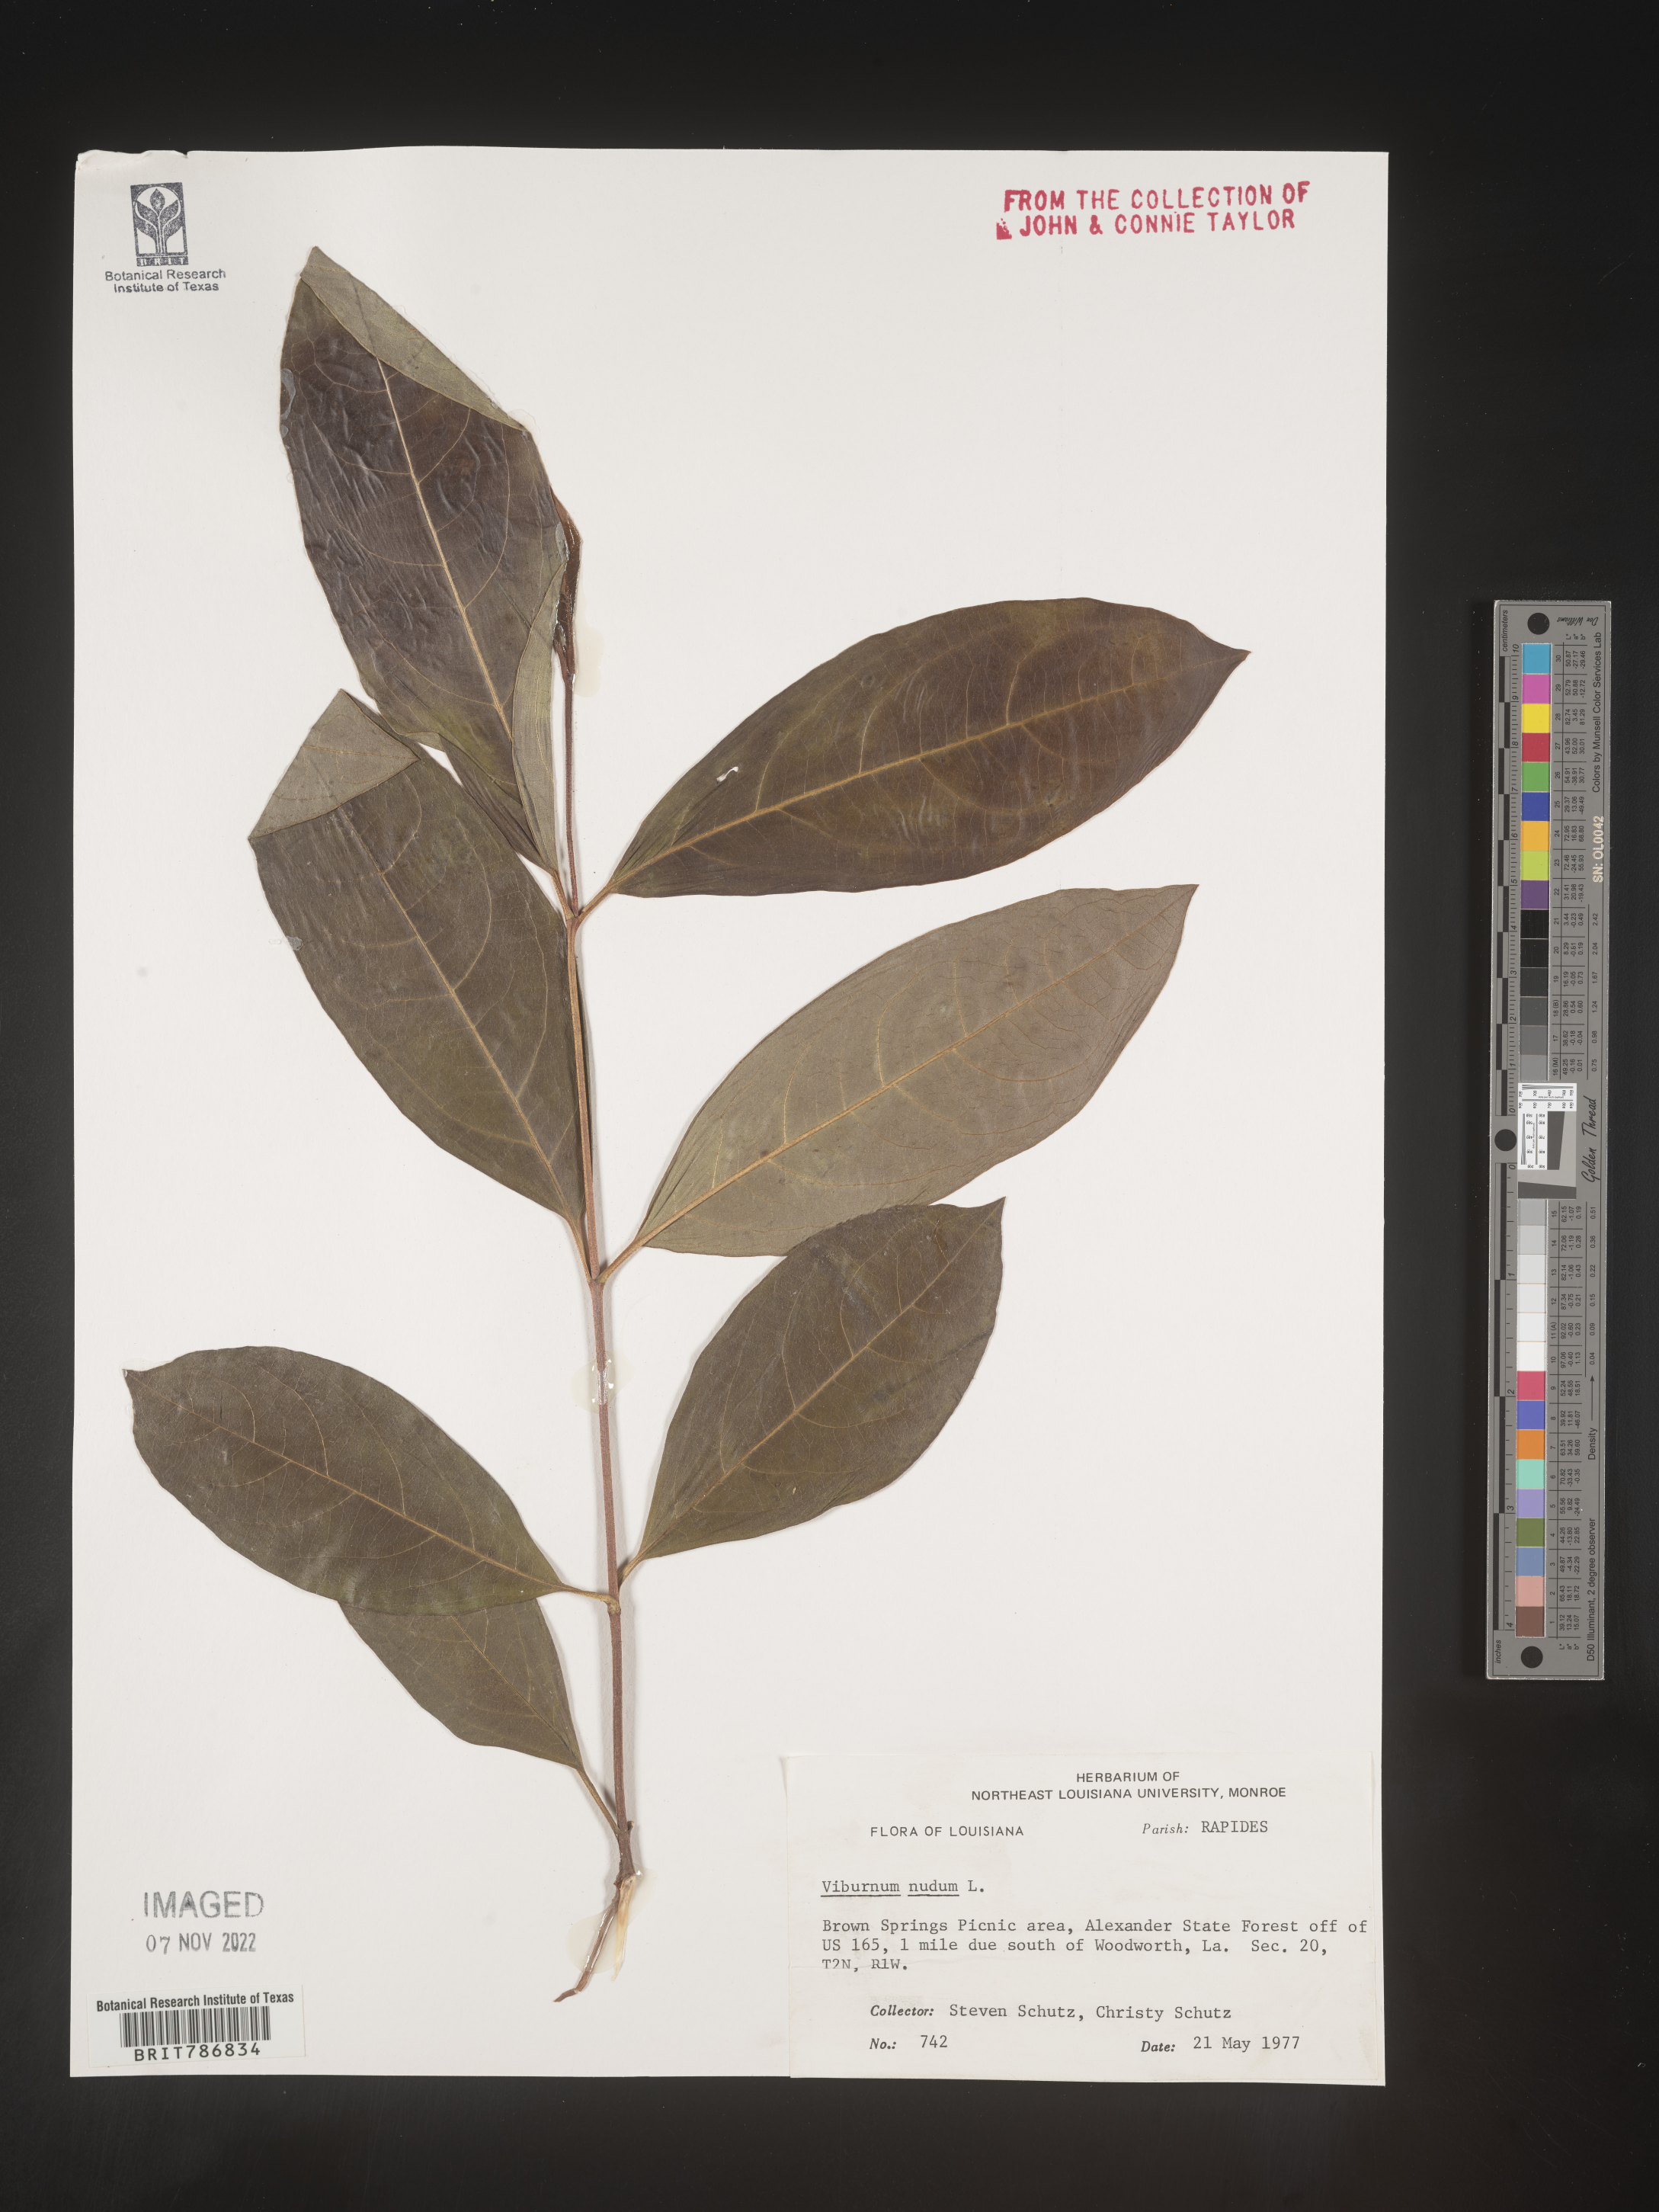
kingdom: Plantae
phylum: Tracheophyta
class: Magnoliopsida
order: Dipsacales
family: Viburnaceae
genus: Viburnum
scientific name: Viburnum nudum
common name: Possum haw
